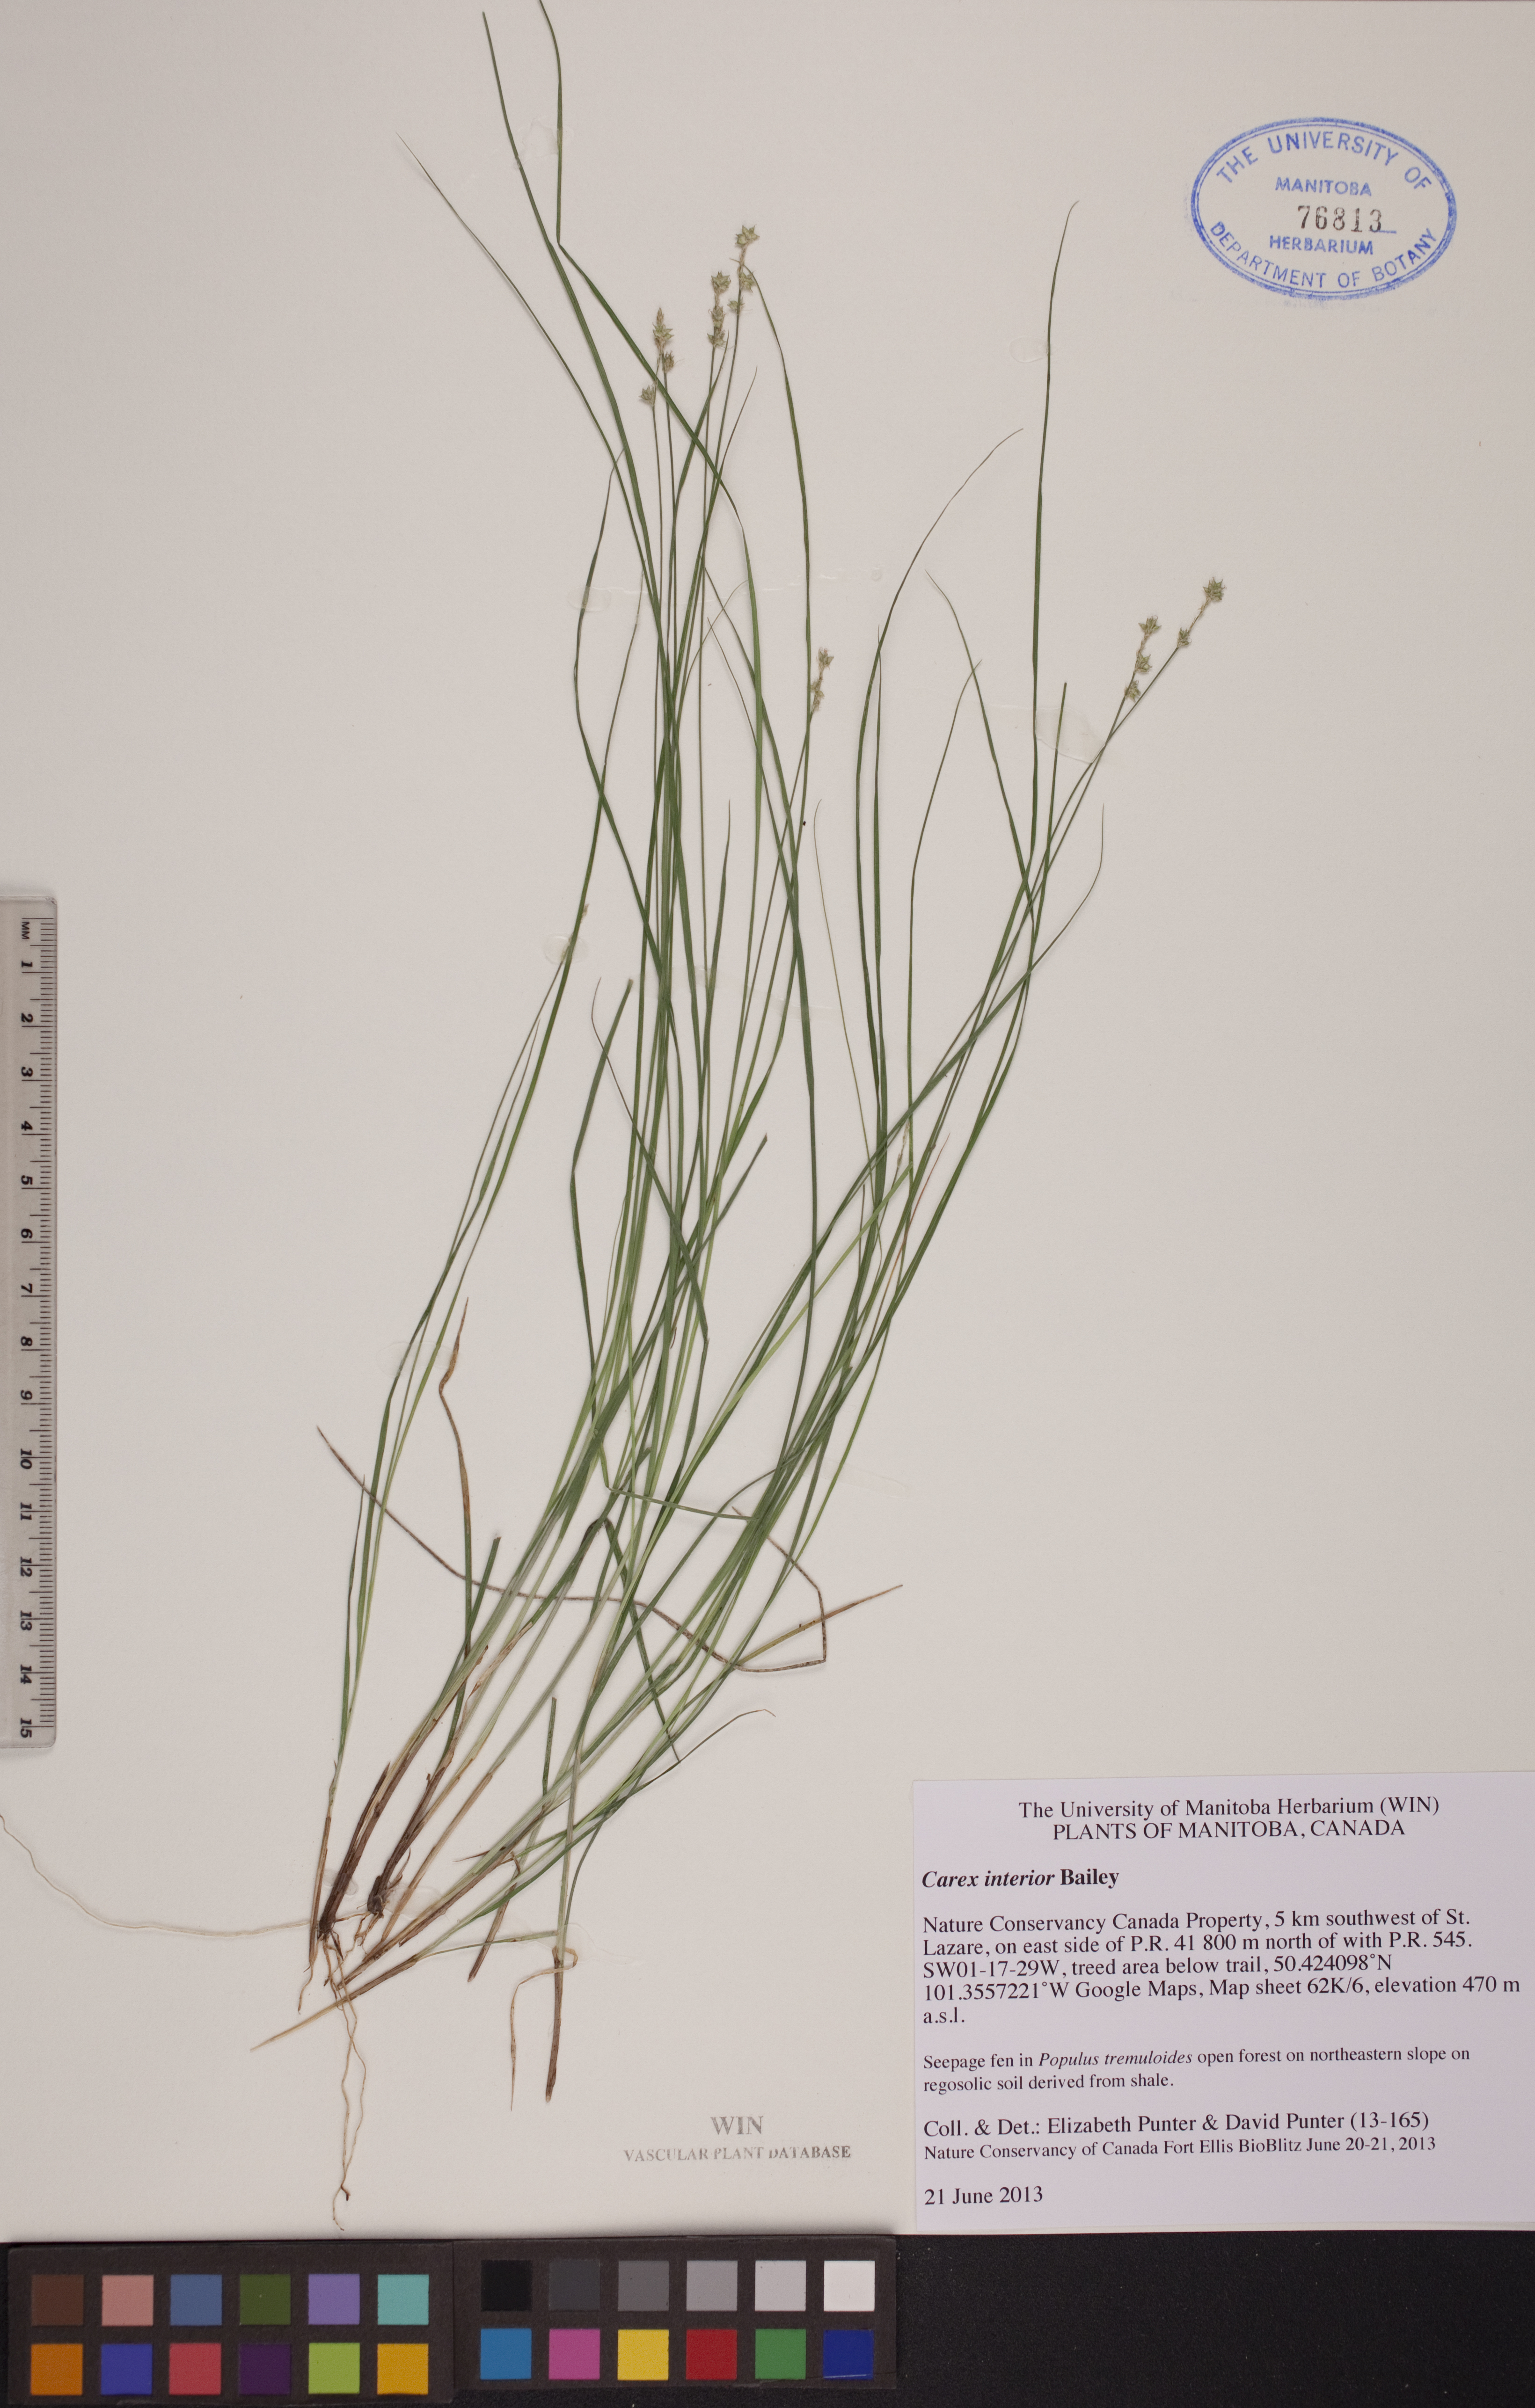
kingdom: Plantae
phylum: Tracheophyta
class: Liliopsida
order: Poales
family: Cyperaceae
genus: Carex
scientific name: Carex interior
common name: Inland sedge
